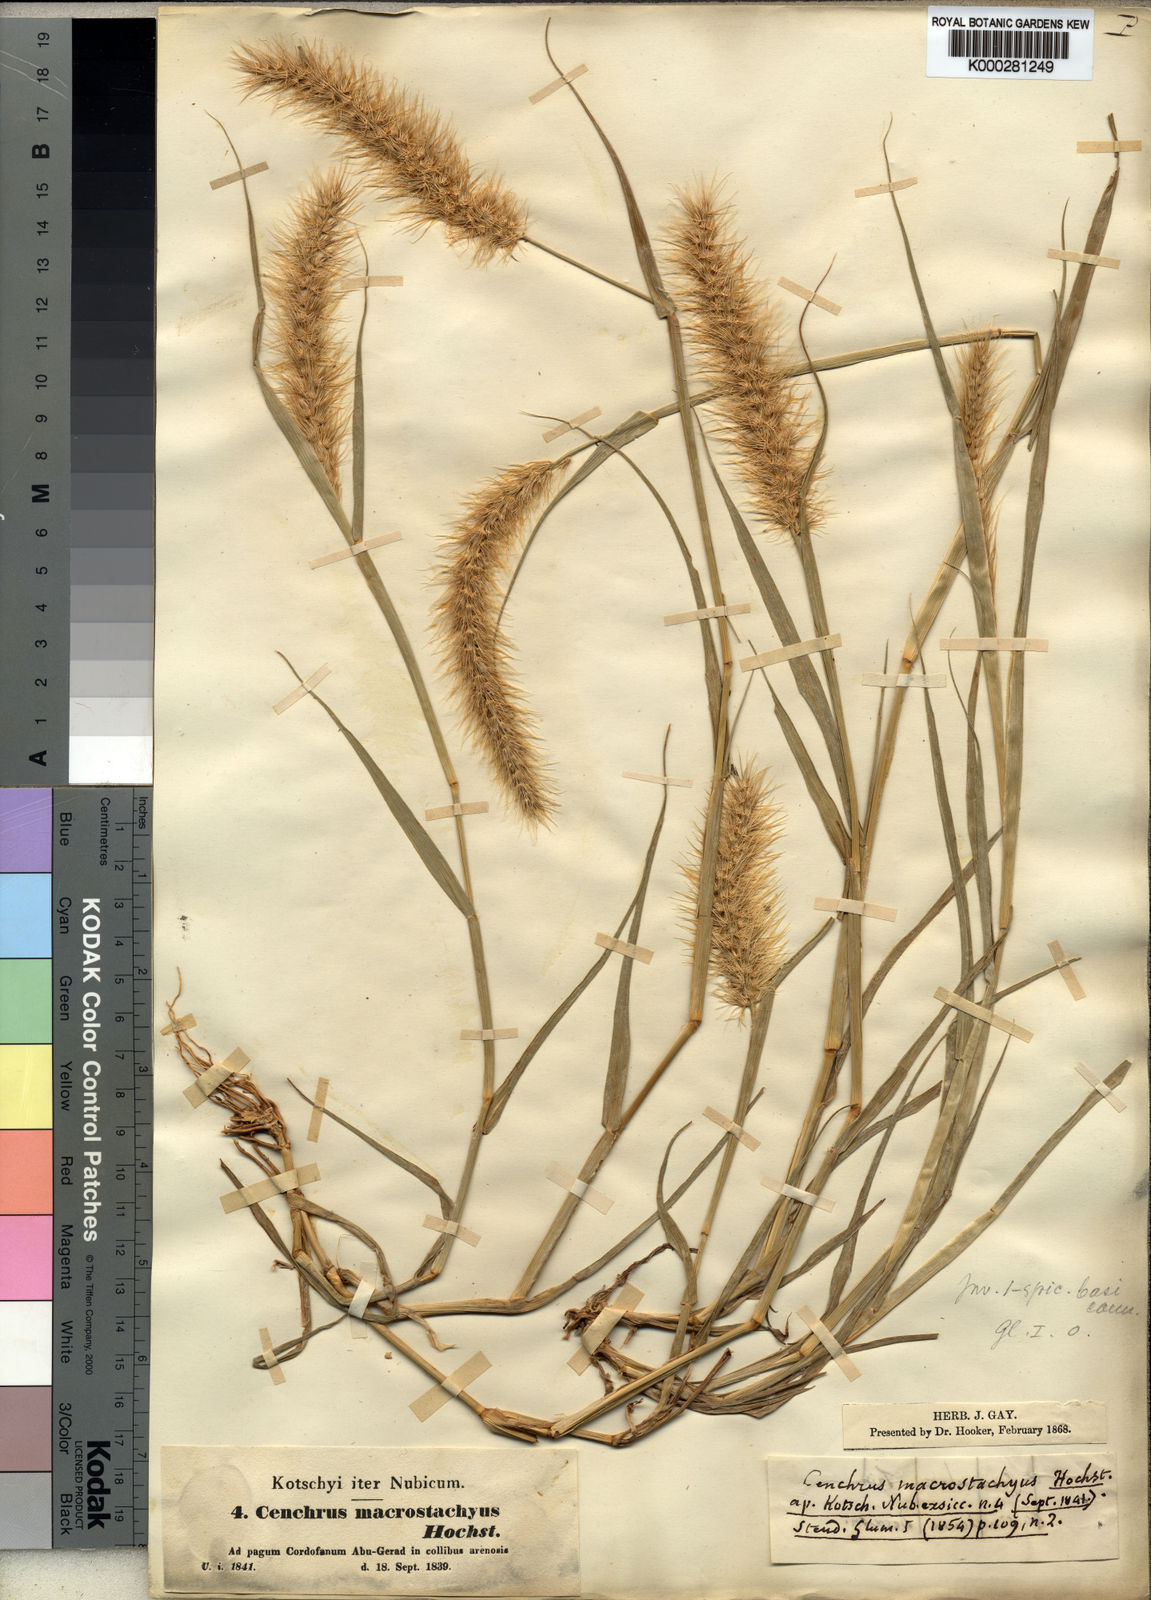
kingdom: Plantae
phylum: Tracheophyta
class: Liliopsida
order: Poales
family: Poaceae
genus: Cenchrus
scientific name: Cenchrus prieurii
